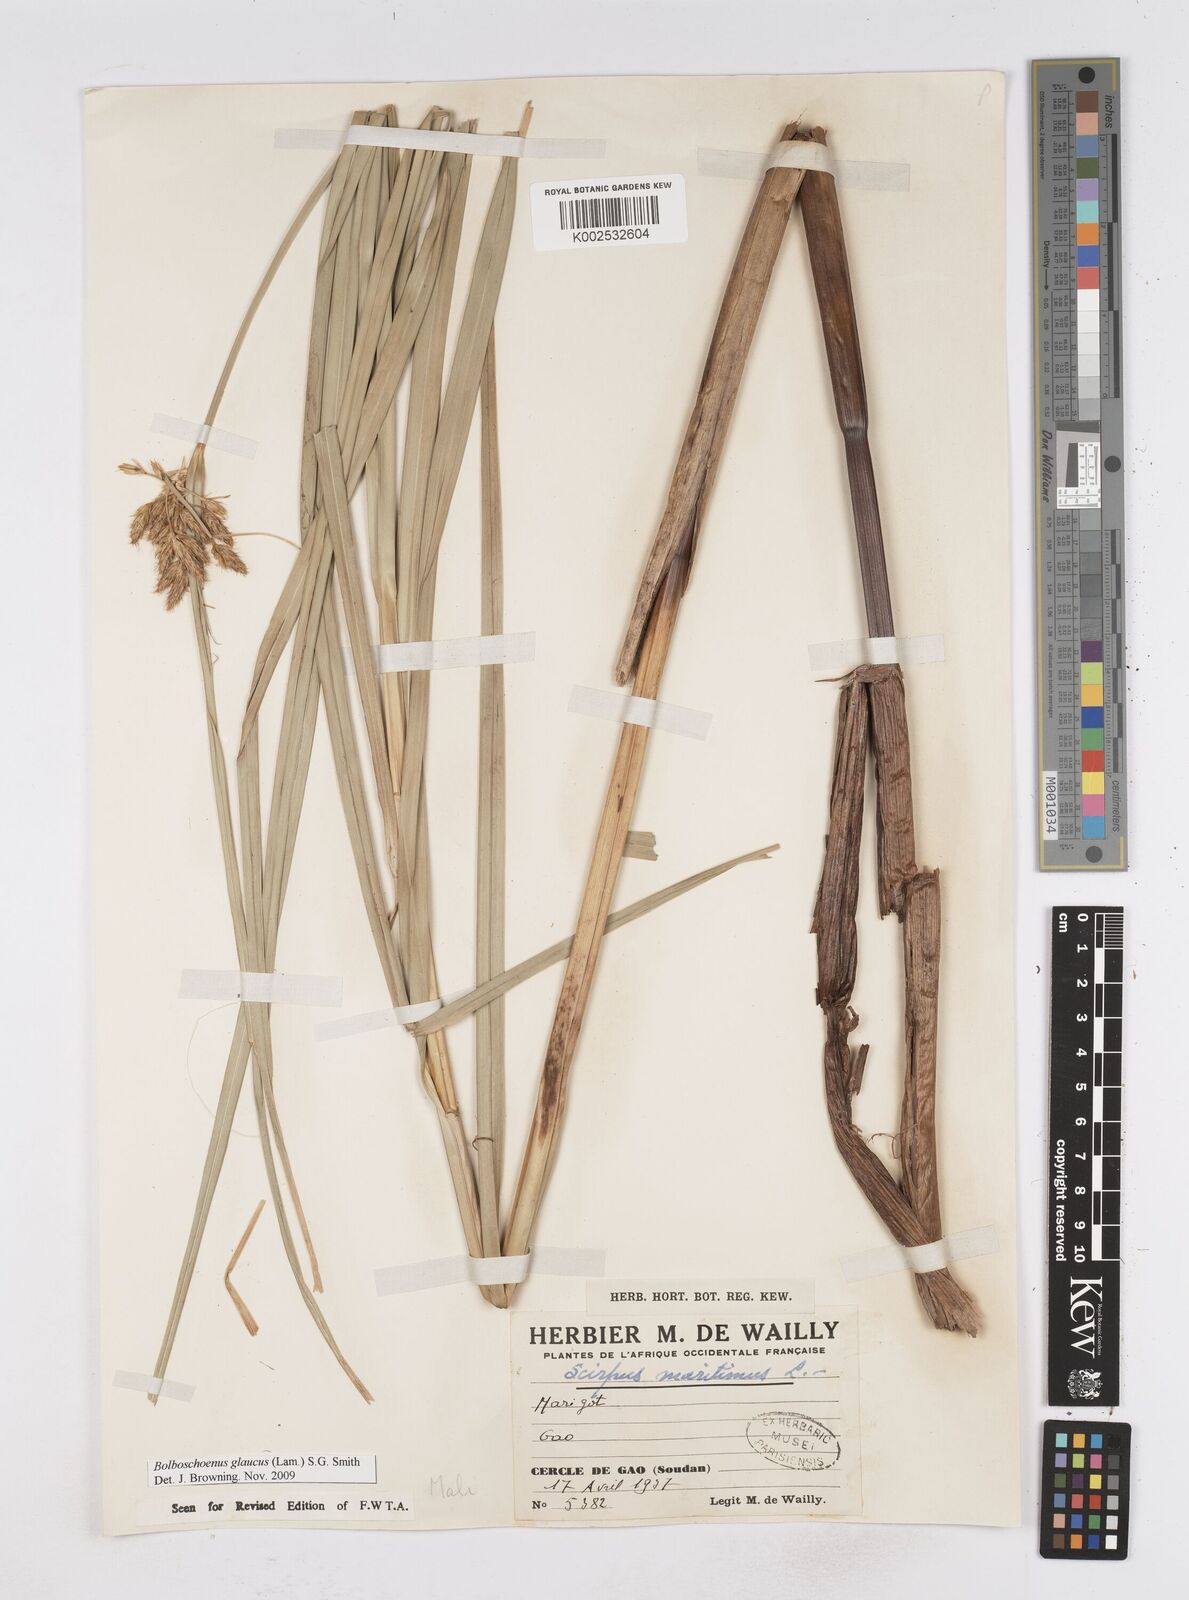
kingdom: Plantae
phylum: Tracheophyta
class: Liliopsida
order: Poales
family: Cyperaceae
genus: Bolboschoenus
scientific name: Bolboschoenus glaucus
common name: Tuberous bulrush
